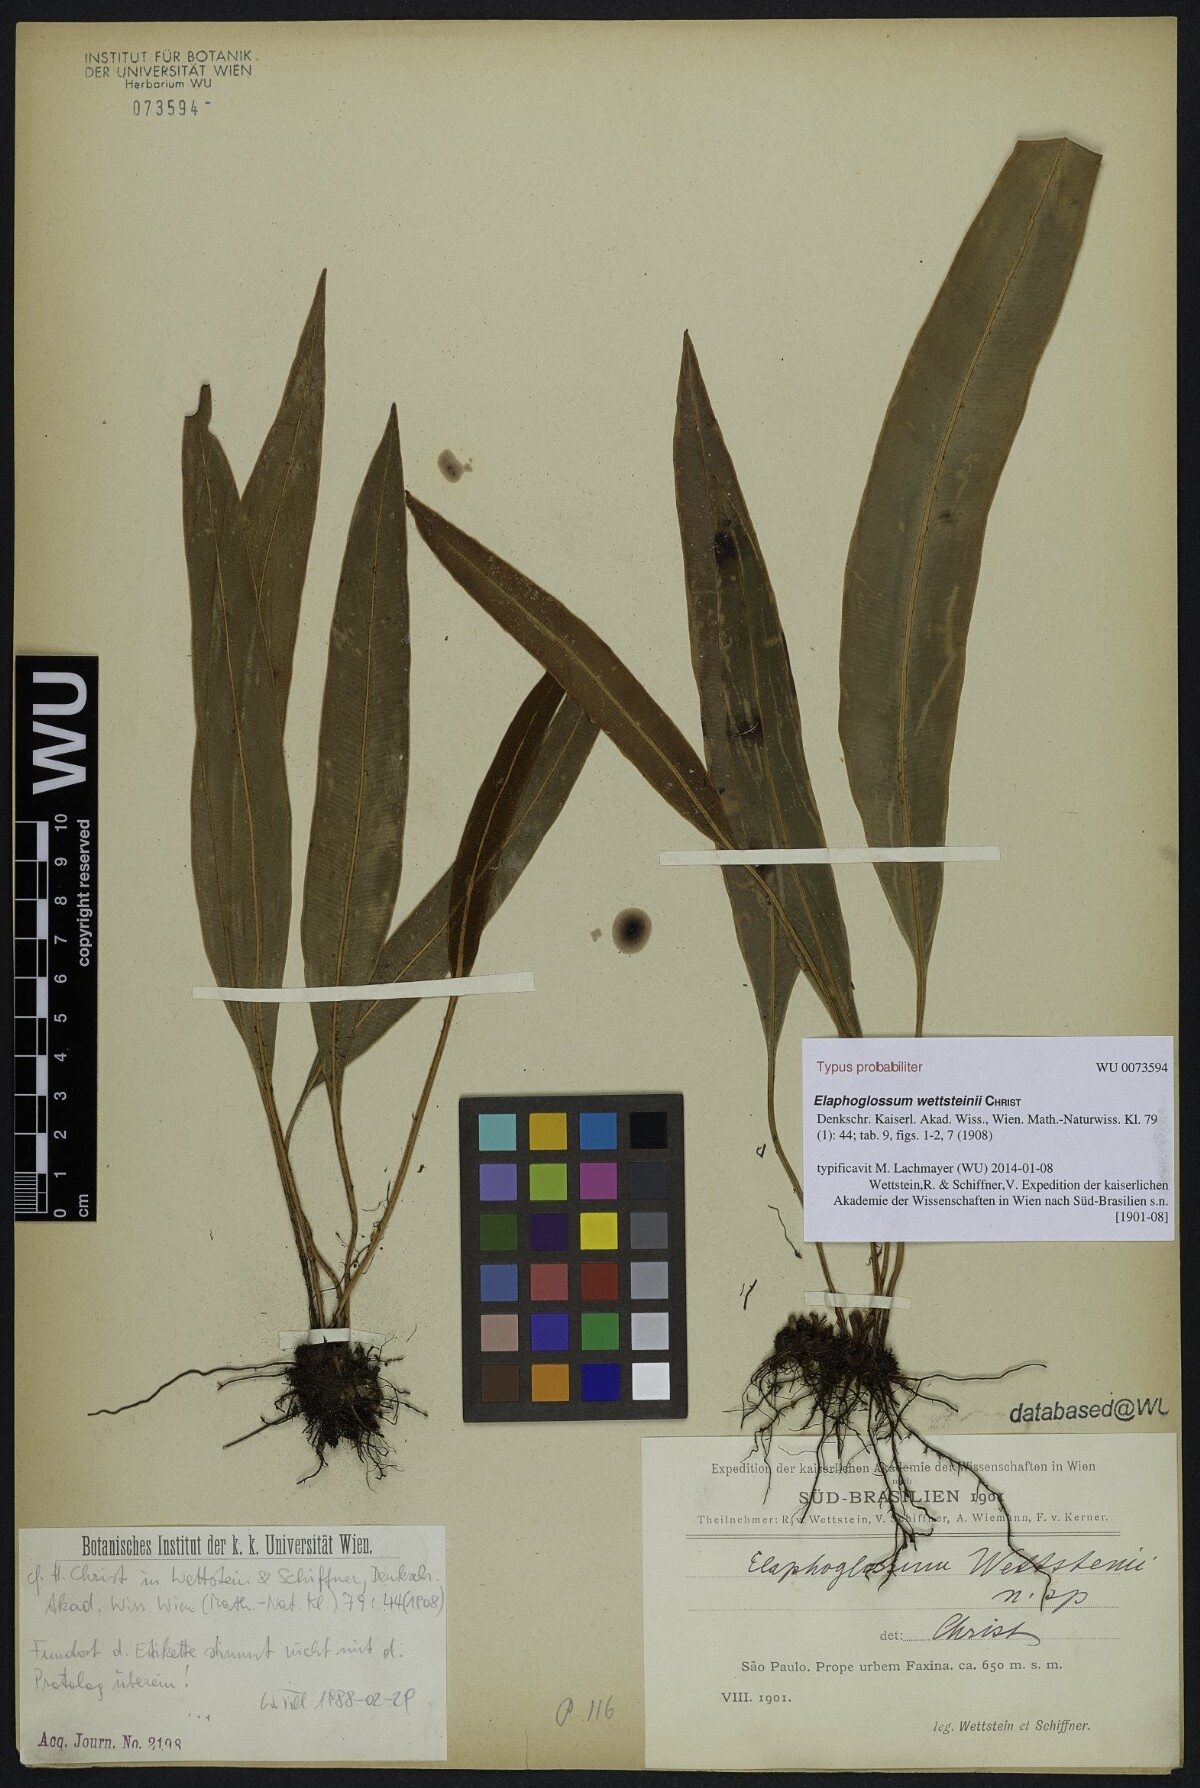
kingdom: Plantae
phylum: Tracheophyta
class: Polypodiopsida
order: Polypodiales
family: Dryopteridaceae
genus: Elaphoglossum
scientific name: Elaphoglossum wettsteinii
